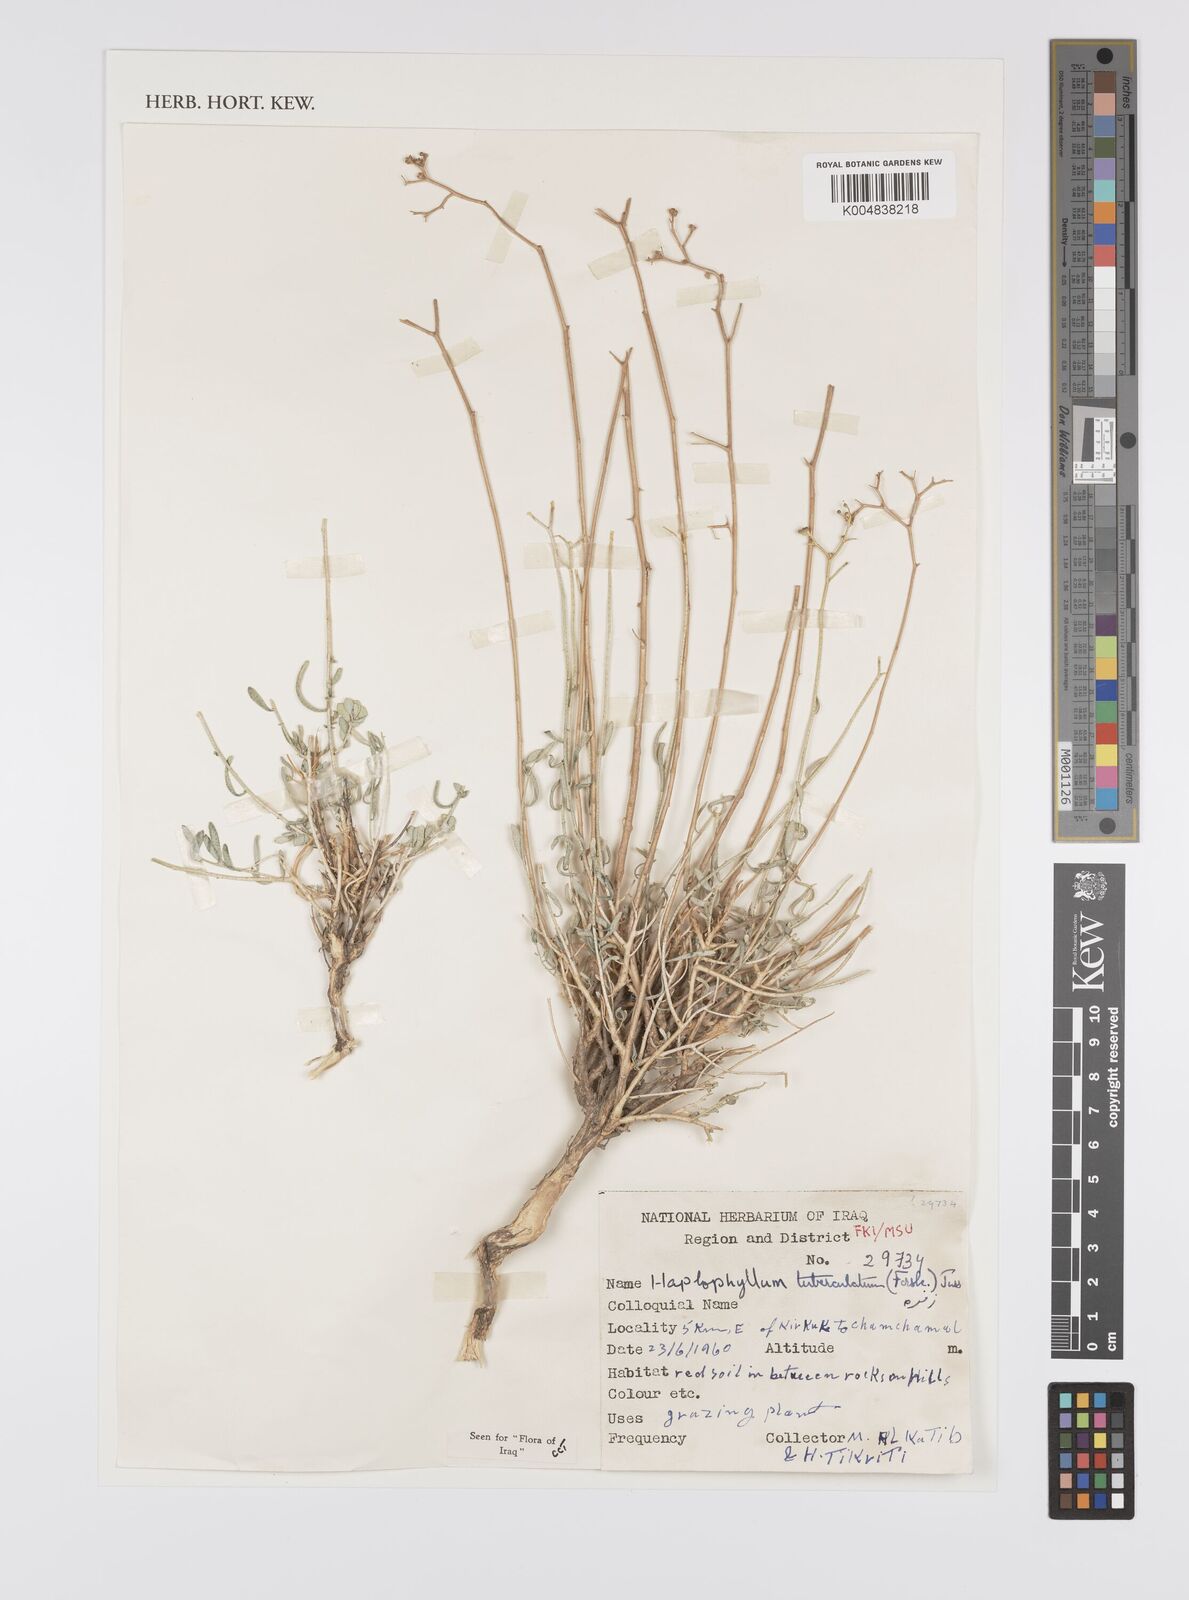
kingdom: Plantae
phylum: Tracheophyta
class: Magnoliopsida
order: Sapindales
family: Rutaceae
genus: Haplophyllum
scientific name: Haplophyllum tuberculatum
